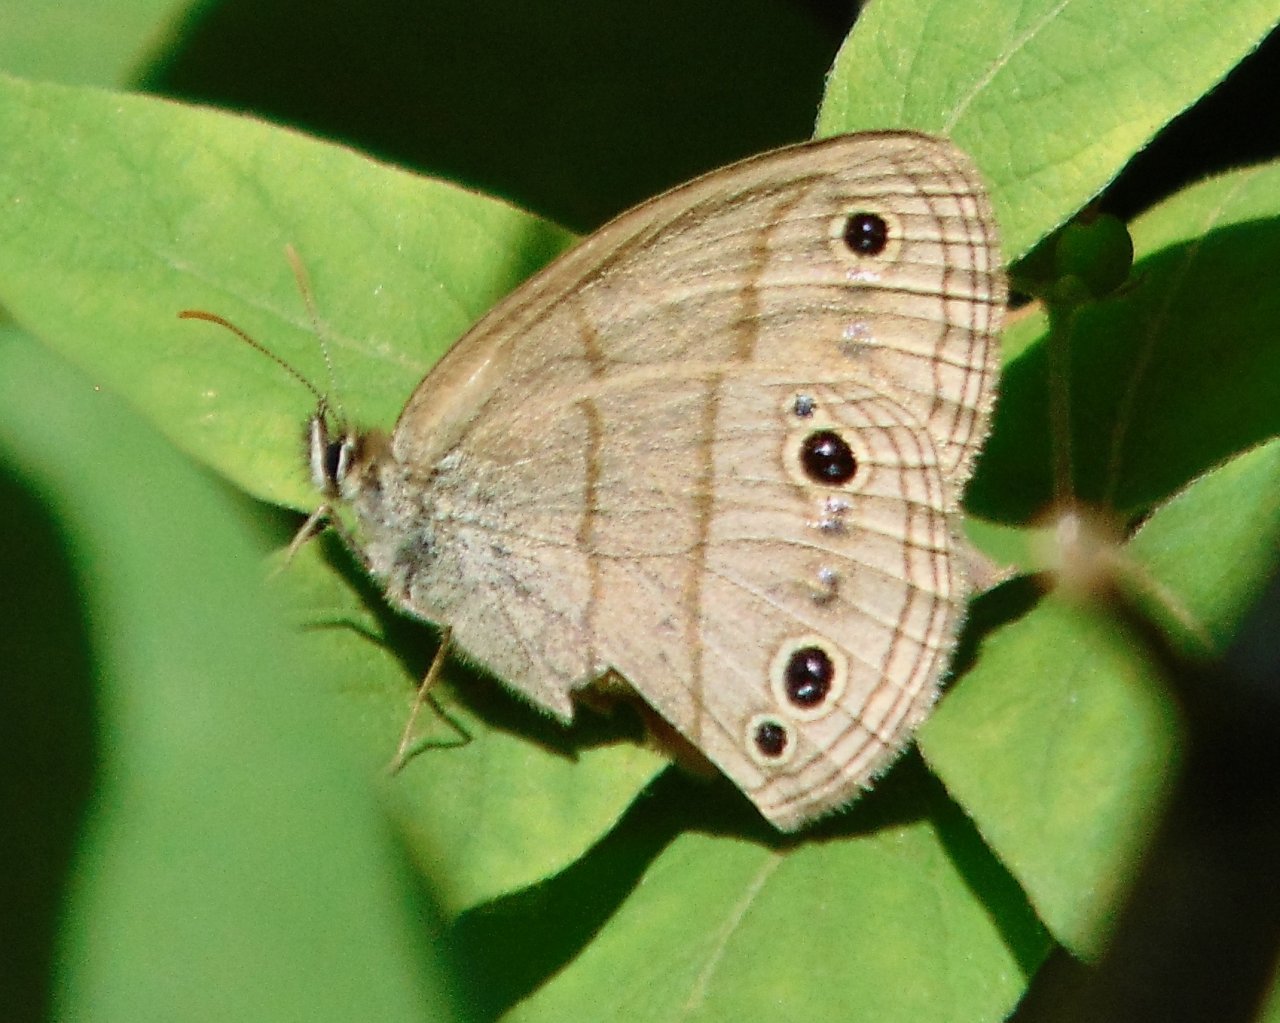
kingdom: Animalia
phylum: Arthropoda
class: Insecta
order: Lepidoptera
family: Nymphalidae
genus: Euptychia
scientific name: Euptychia cymela
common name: Little Wood Satyr
